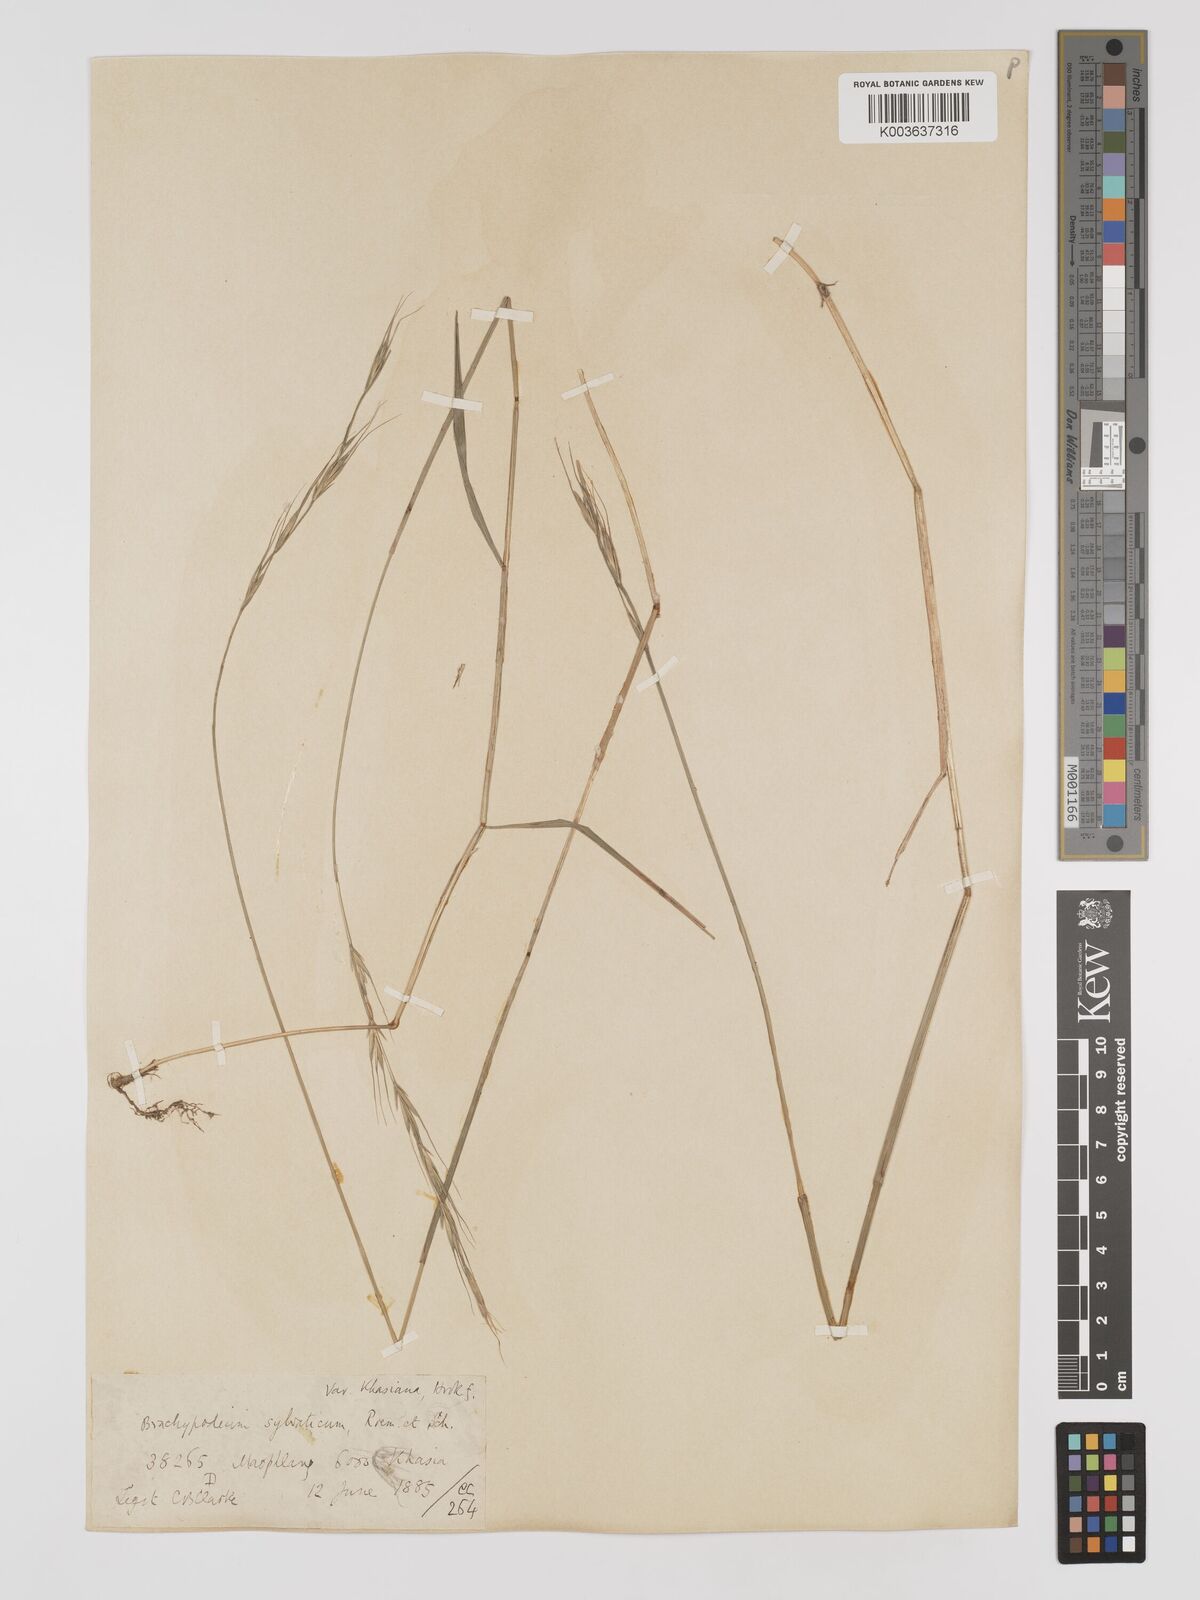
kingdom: Plantae
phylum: Tracheophyta
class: Liliopsida
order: Poales
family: Poaceae
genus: Brachypodium
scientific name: Brachypodium sylvaticum
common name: False-brome
